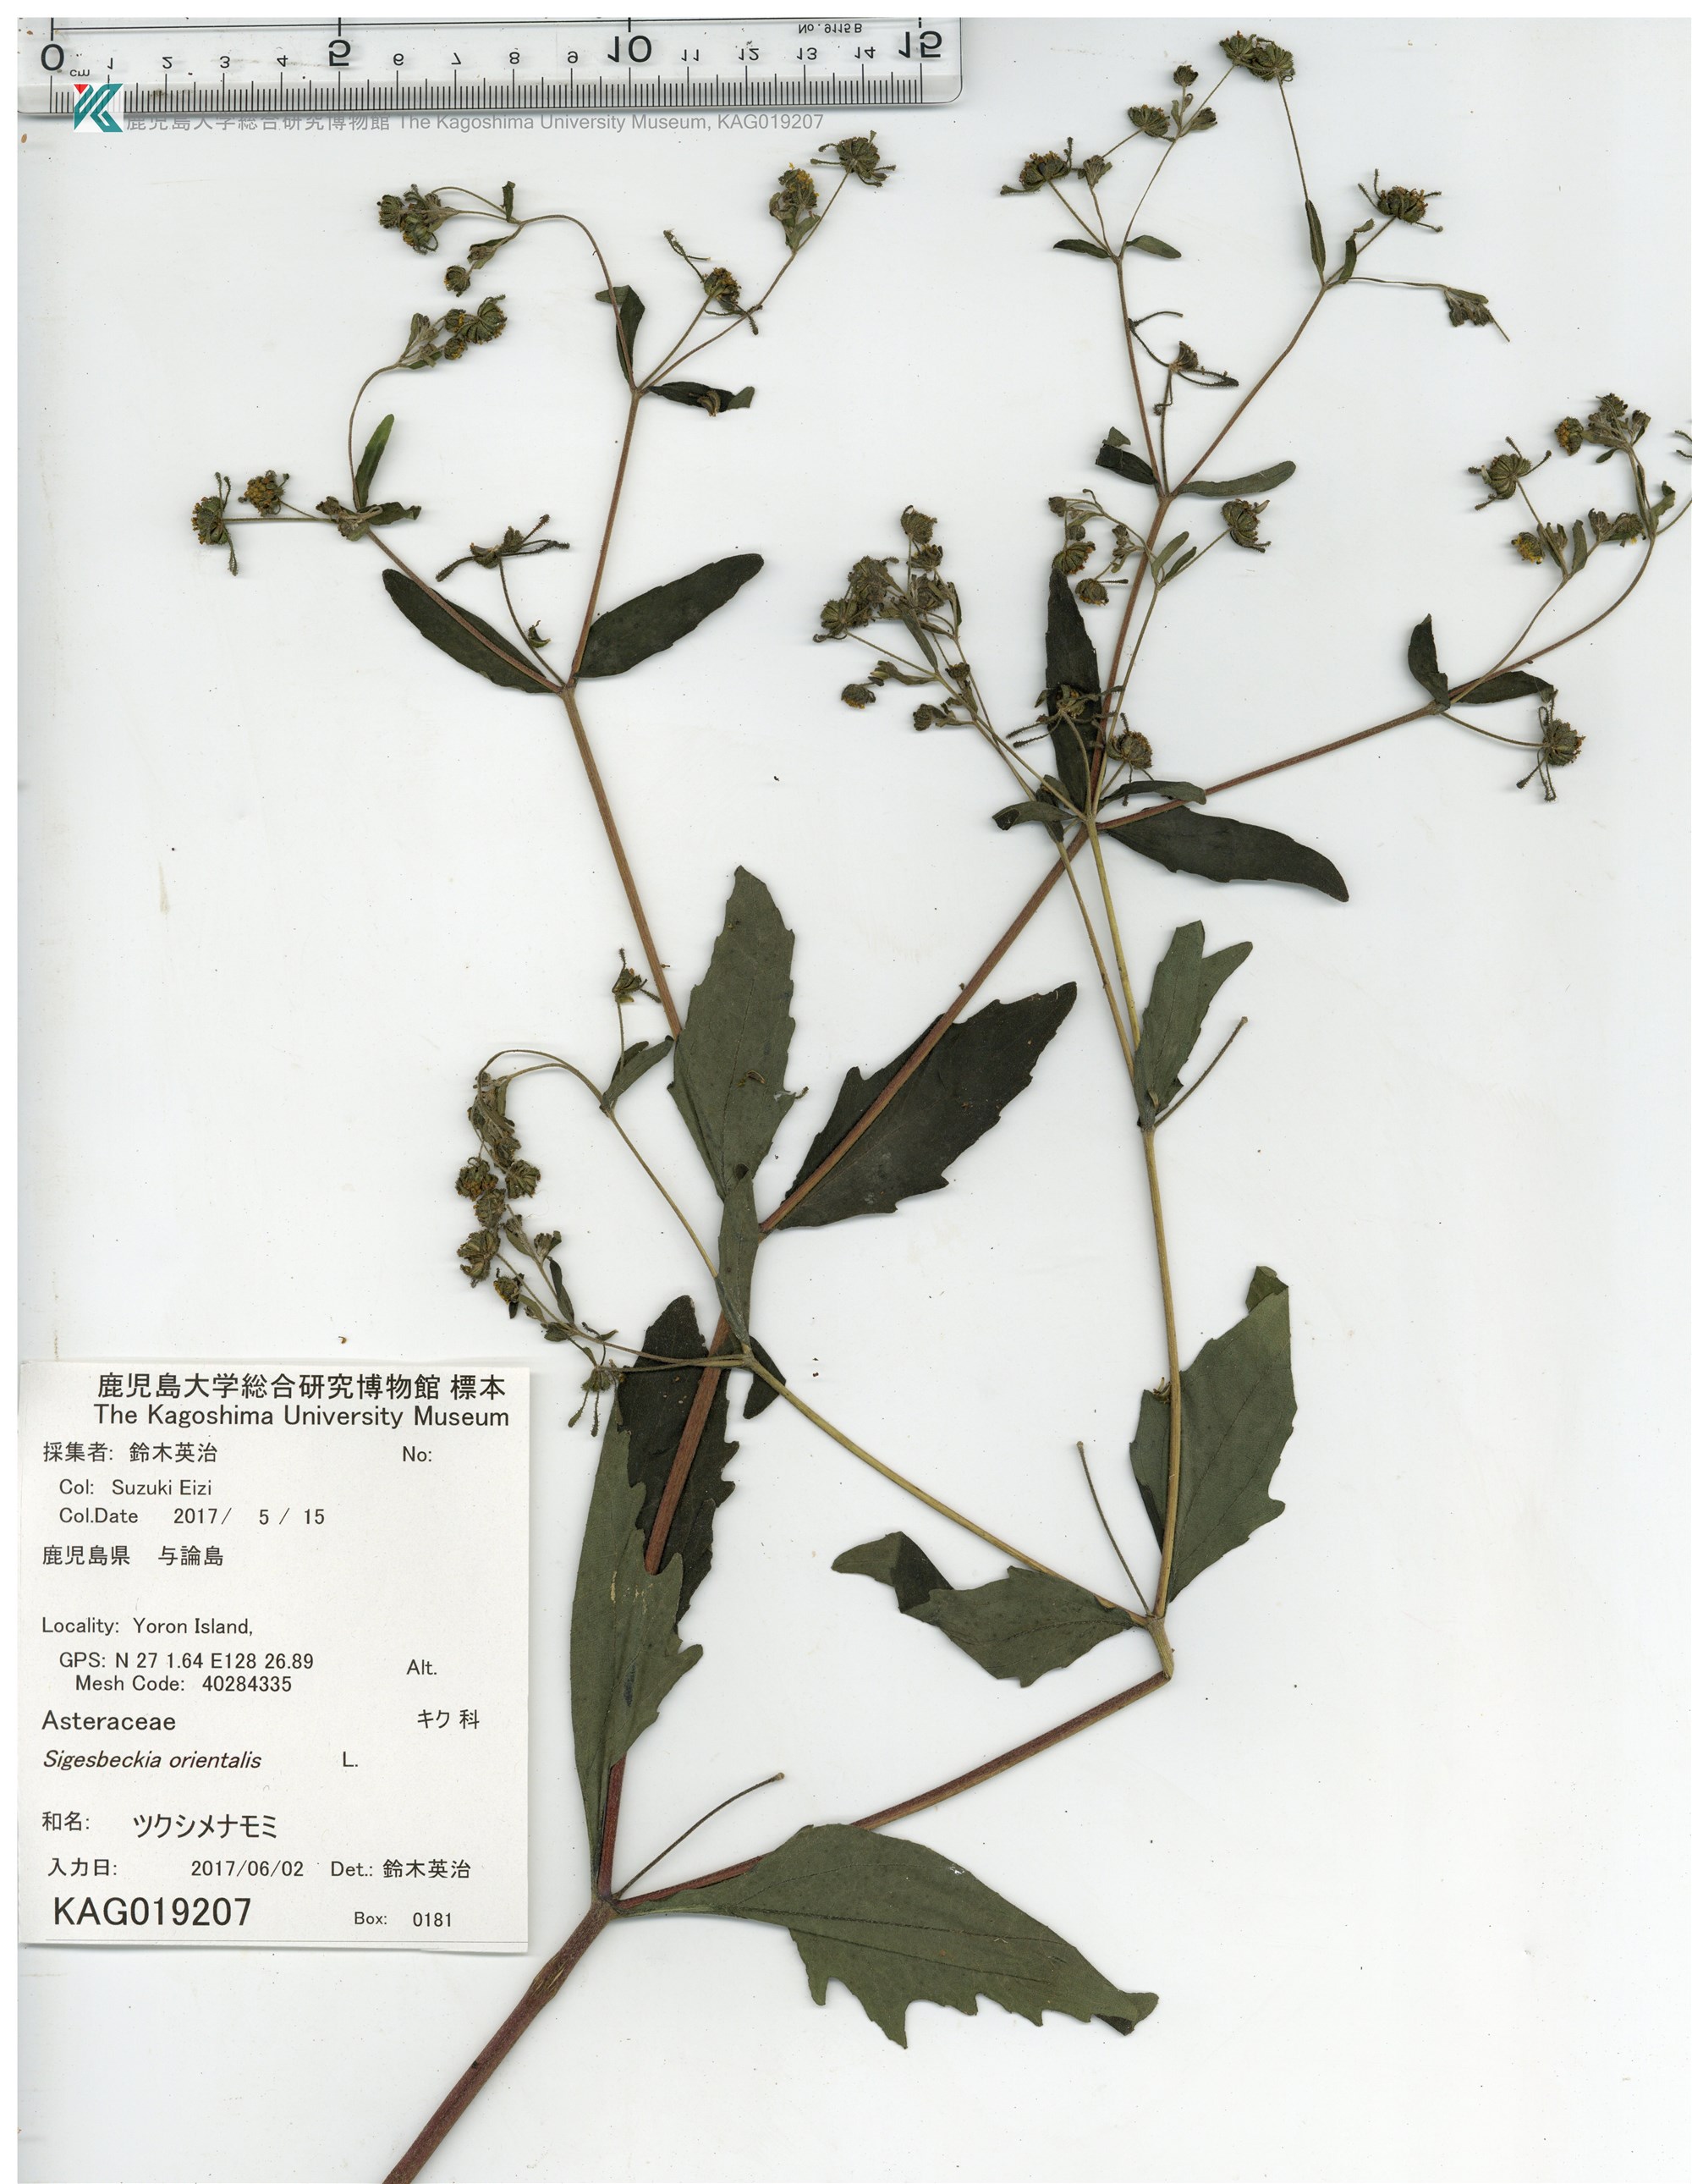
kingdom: Plantae
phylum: Tracheophyta
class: Magnoliopsida
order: Asterales
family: Asteraceae
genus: Sigesbeckia
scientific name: Sigesbeckia orientalis
